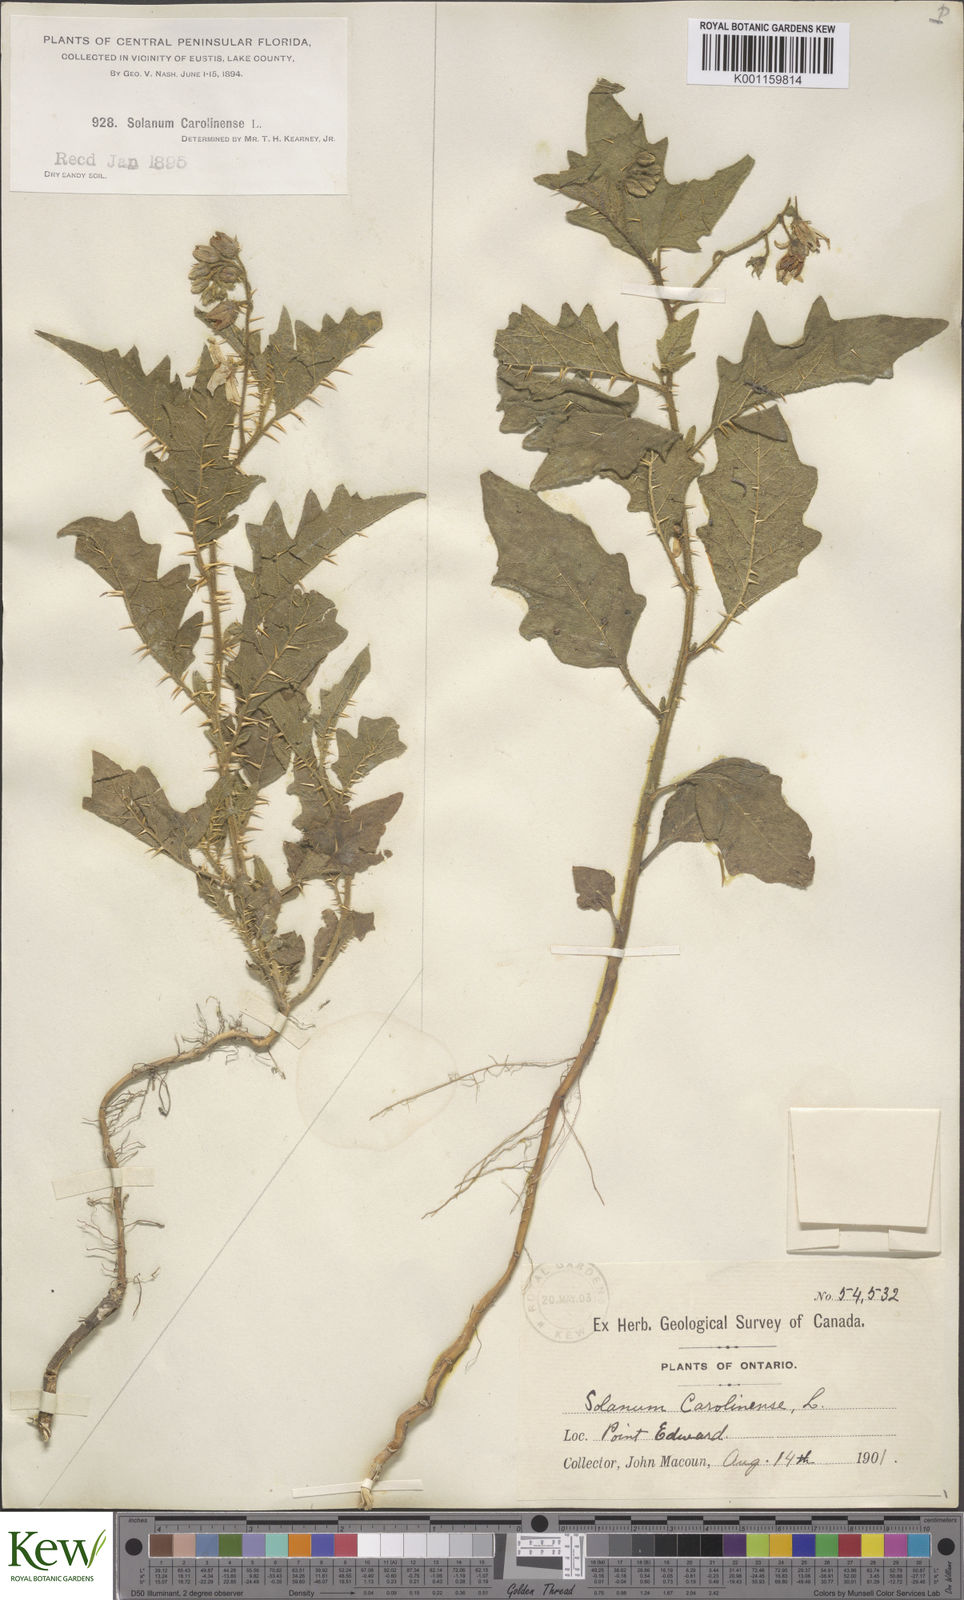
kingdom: Plantae
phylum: Tracheophyta
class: Magnoliopsida
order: Solanales
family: Solanaceae
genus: Solanum
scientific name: Solanum carolinense
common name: Horse-nettle
